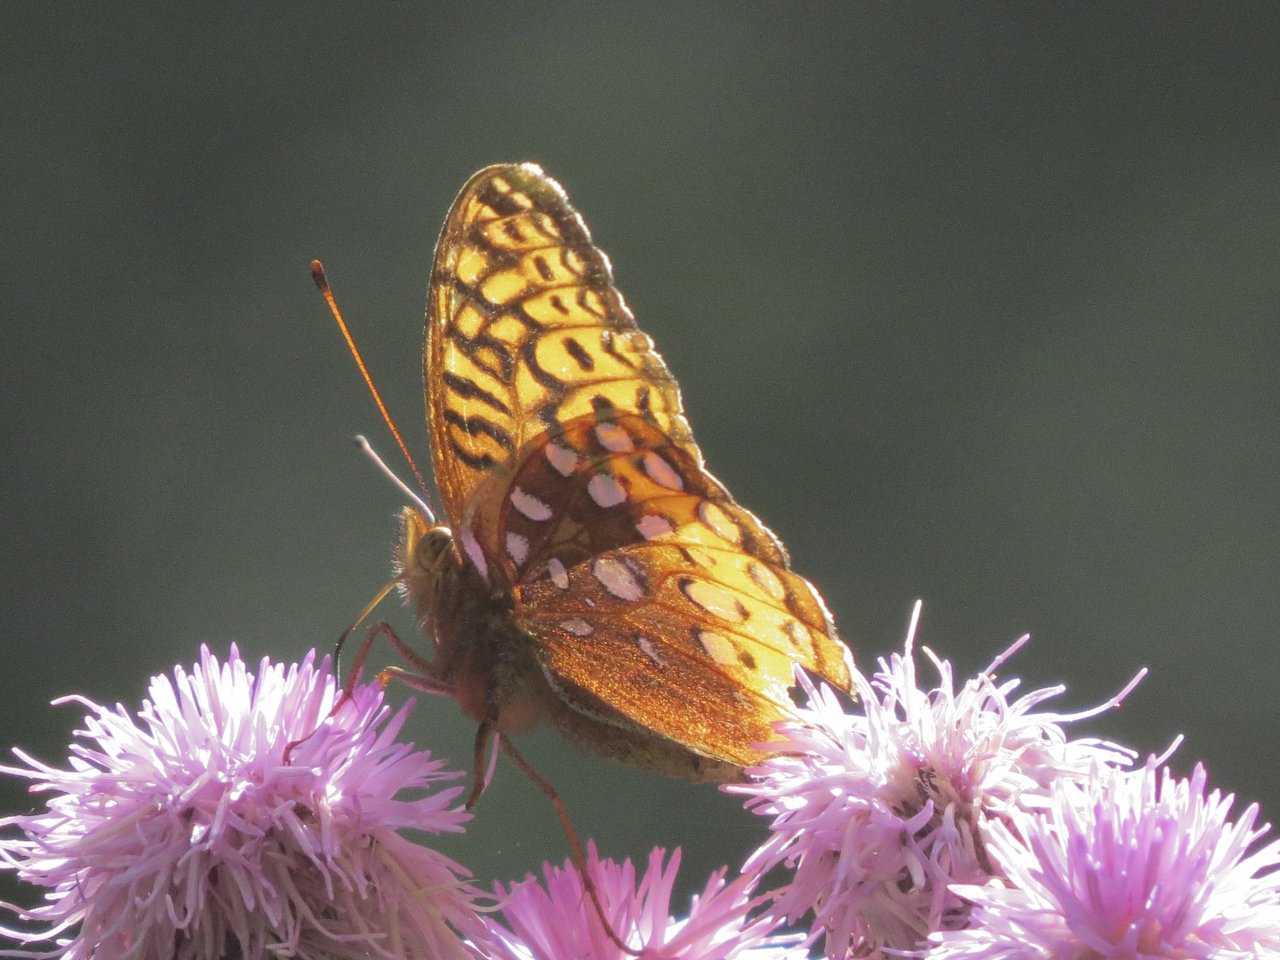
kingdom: Animalia
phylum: Arthropoda
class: Insecta
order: Lepidoptera
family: Nymphalidae
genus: Speyeria
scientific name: Speyeria cybele
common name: Great Spangled Fritillary
